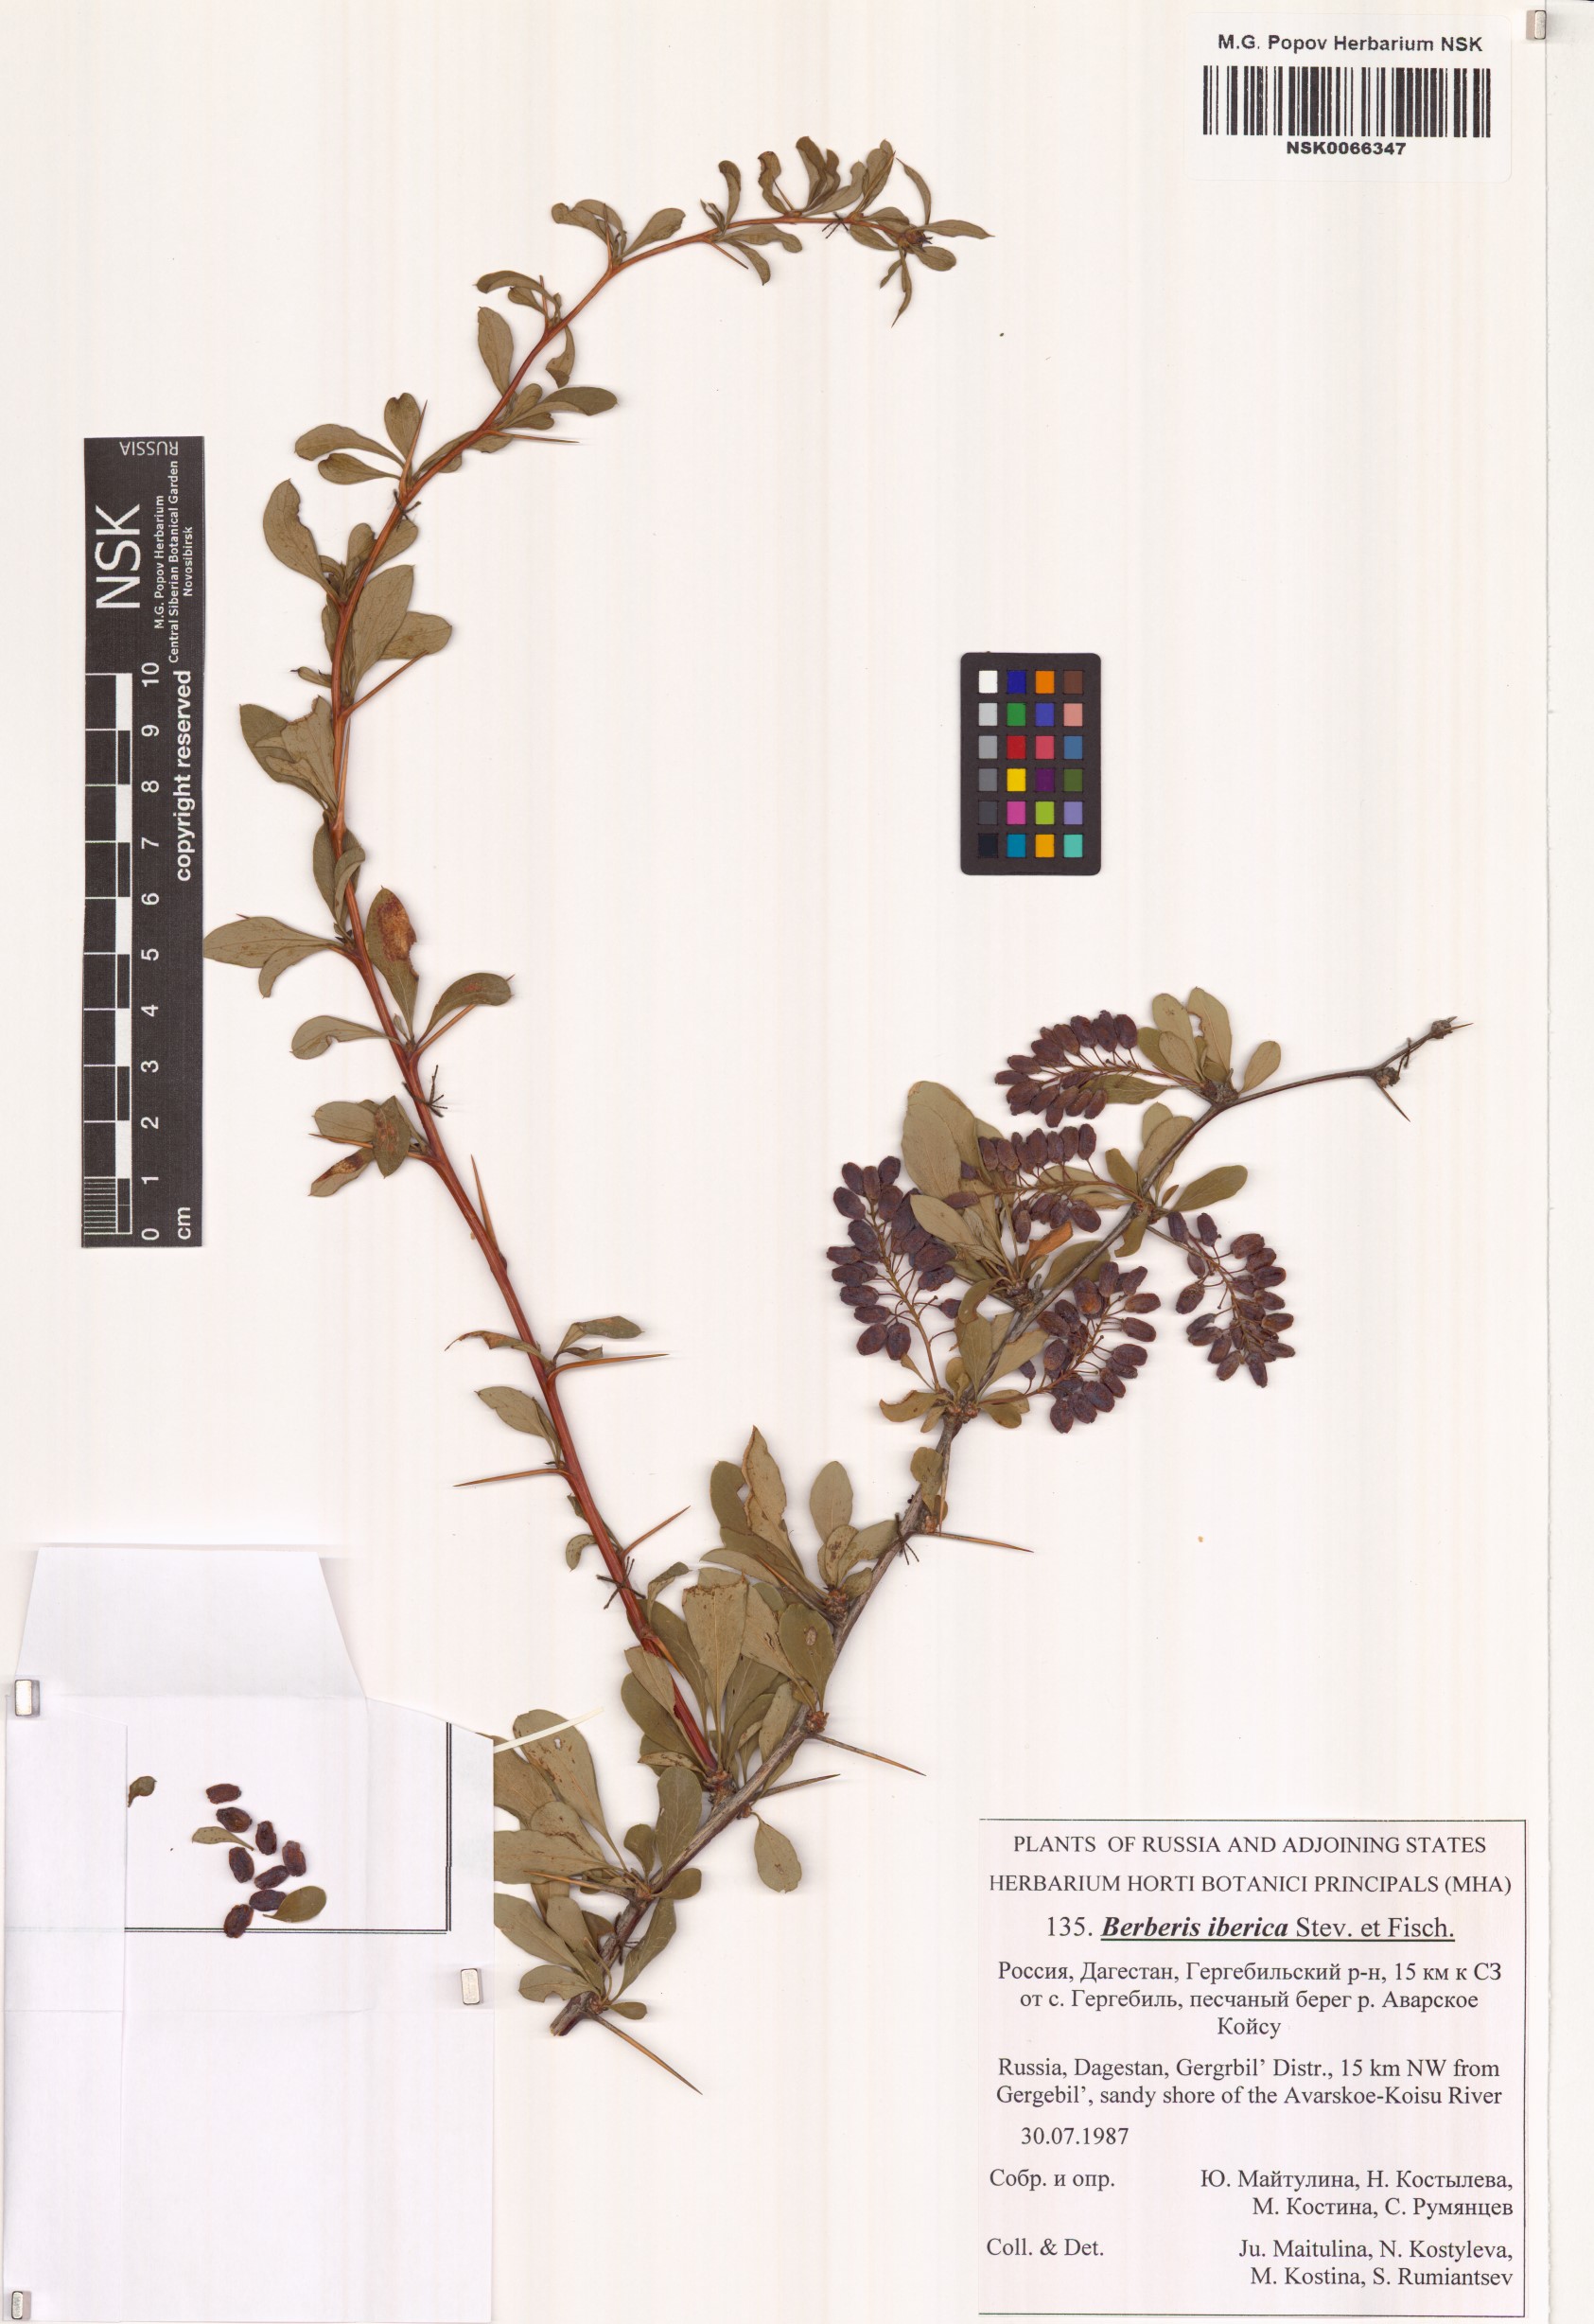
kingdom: Plantae
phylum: Tracheophyta
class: Magnoliopsida
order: Ranunculales
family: Berberidaceae
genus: Berberis
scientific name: Berberis iberica
